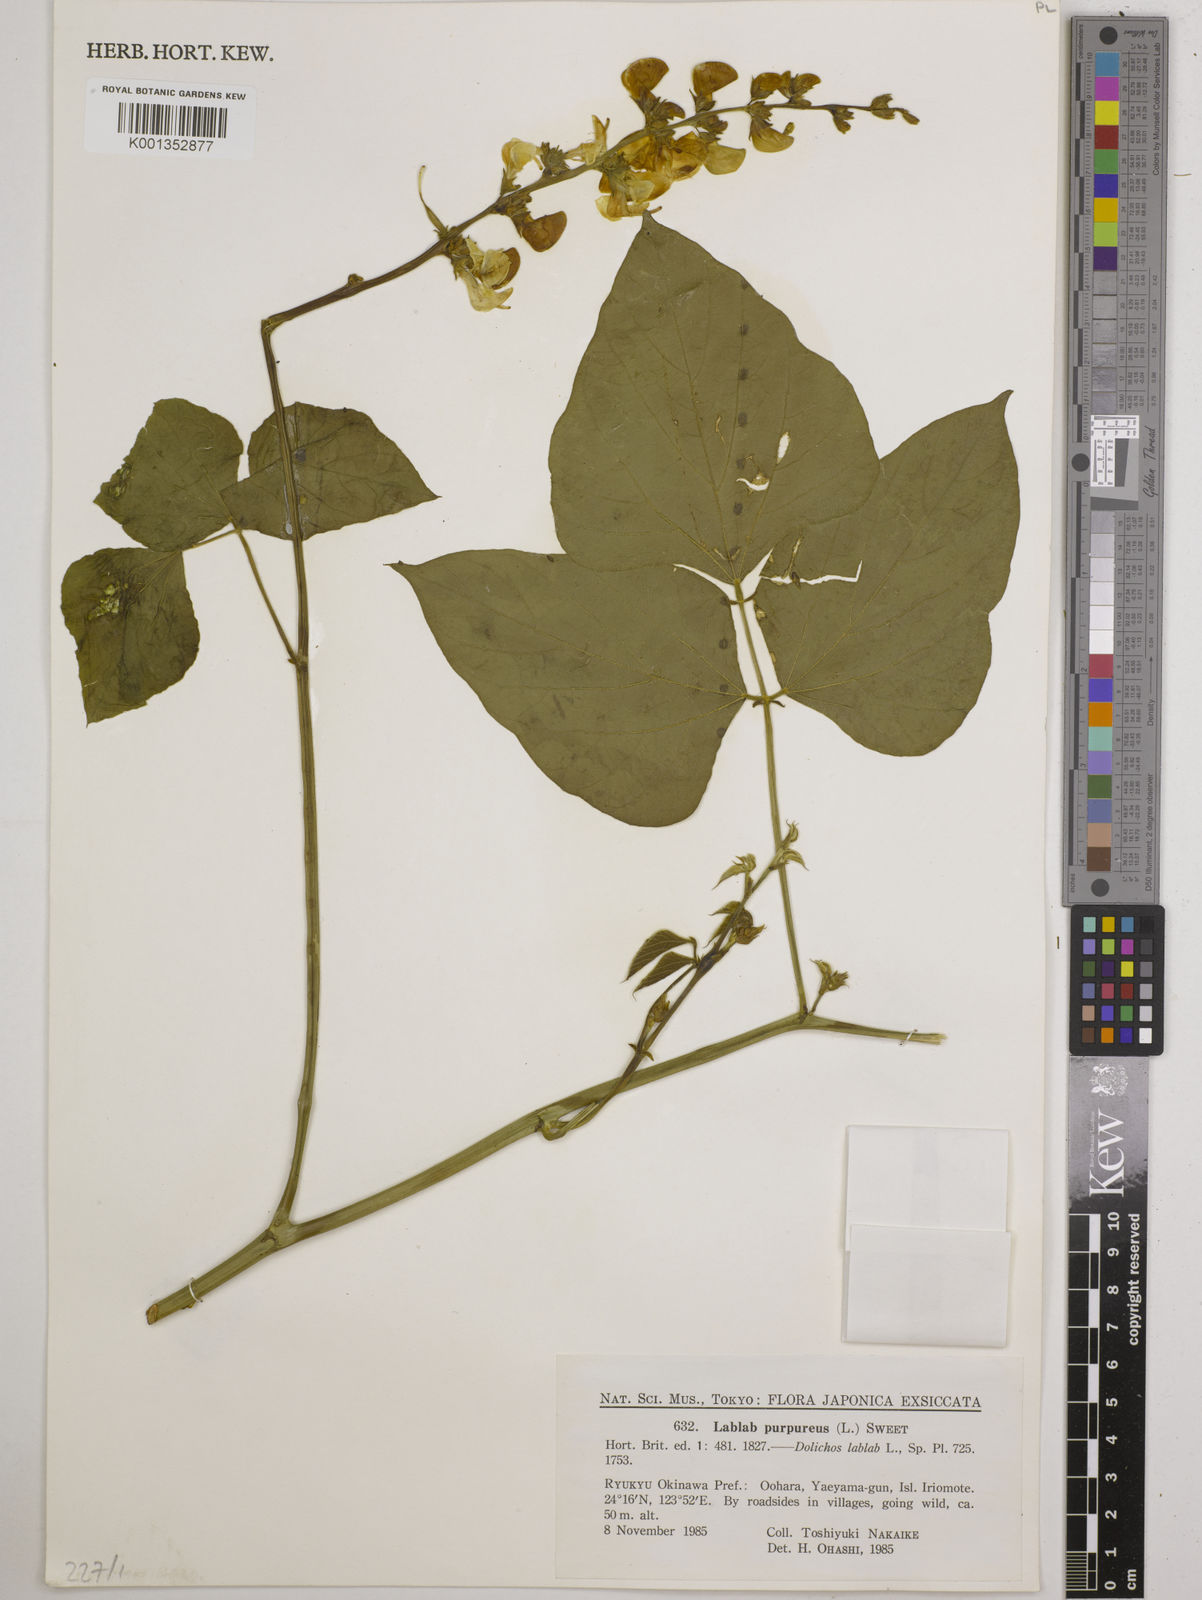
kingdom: Plantae
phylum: Tracheophyta
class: Magnoliopsida
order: Fabales
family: Fabaceae
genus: Lablab
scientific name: Lablab purpureus
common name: Lablab-bean
